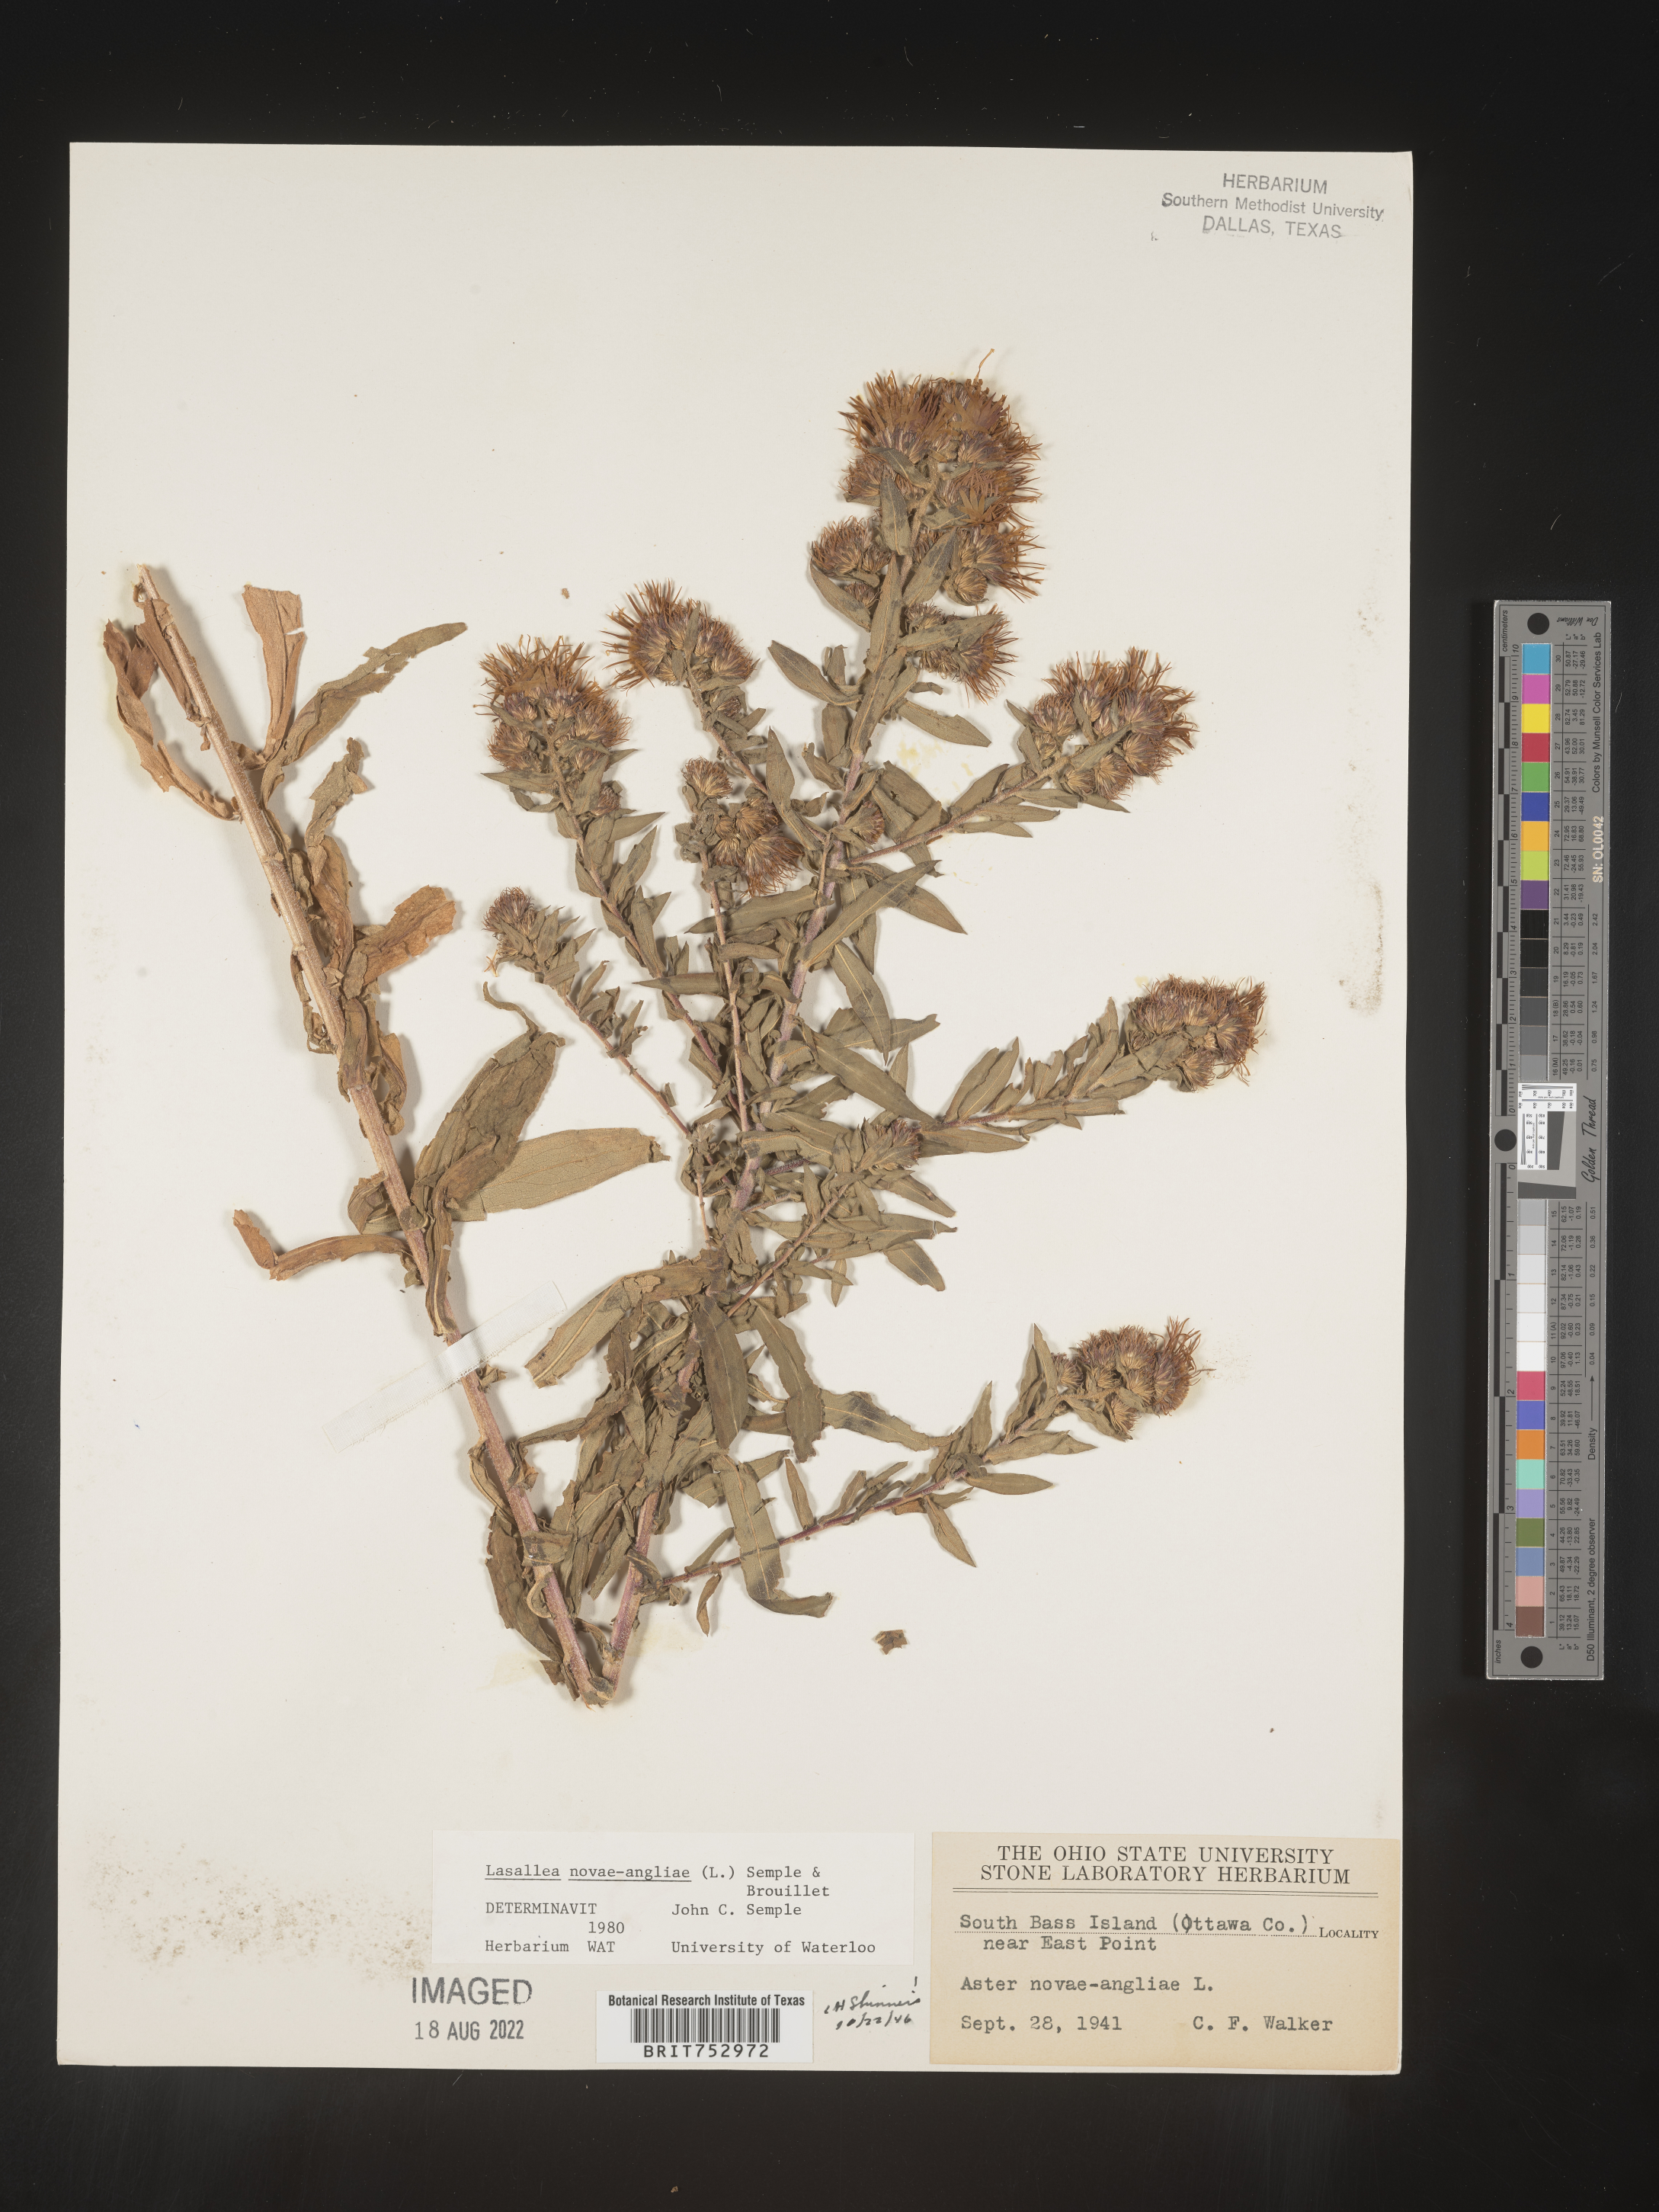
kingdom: Plantae
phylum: Tracheophyta
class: Magnoliopsida
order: Asterales
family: Asteraceae
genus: Symphyotrichum
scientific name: Symphyotrichum novae-angliae
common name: Michaelmas daisy
